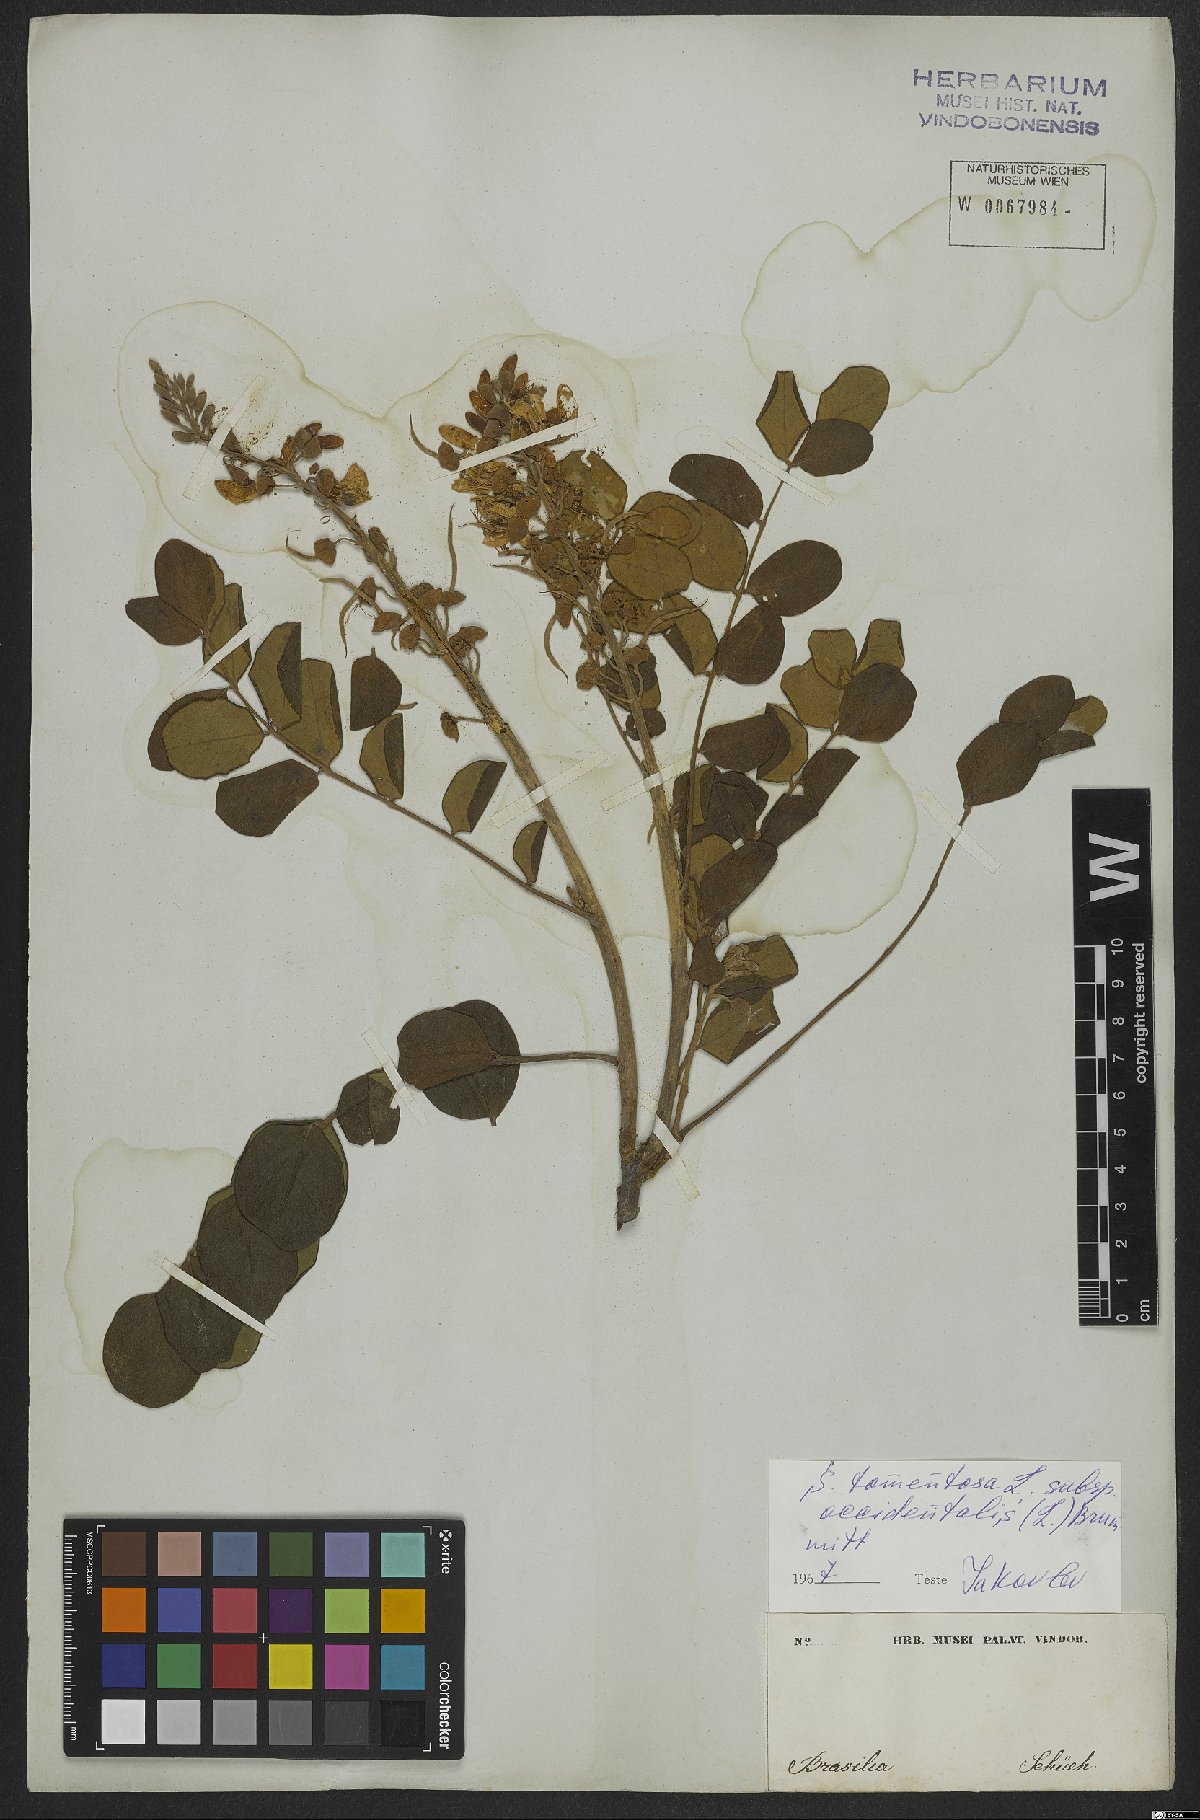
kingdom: Plantae
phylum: Tracheophyta
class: Magnoliopsida
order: Fabales
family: Fabaceae
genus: Sophora
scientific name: Sophora tomentosa
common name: Yellow necklacepod
